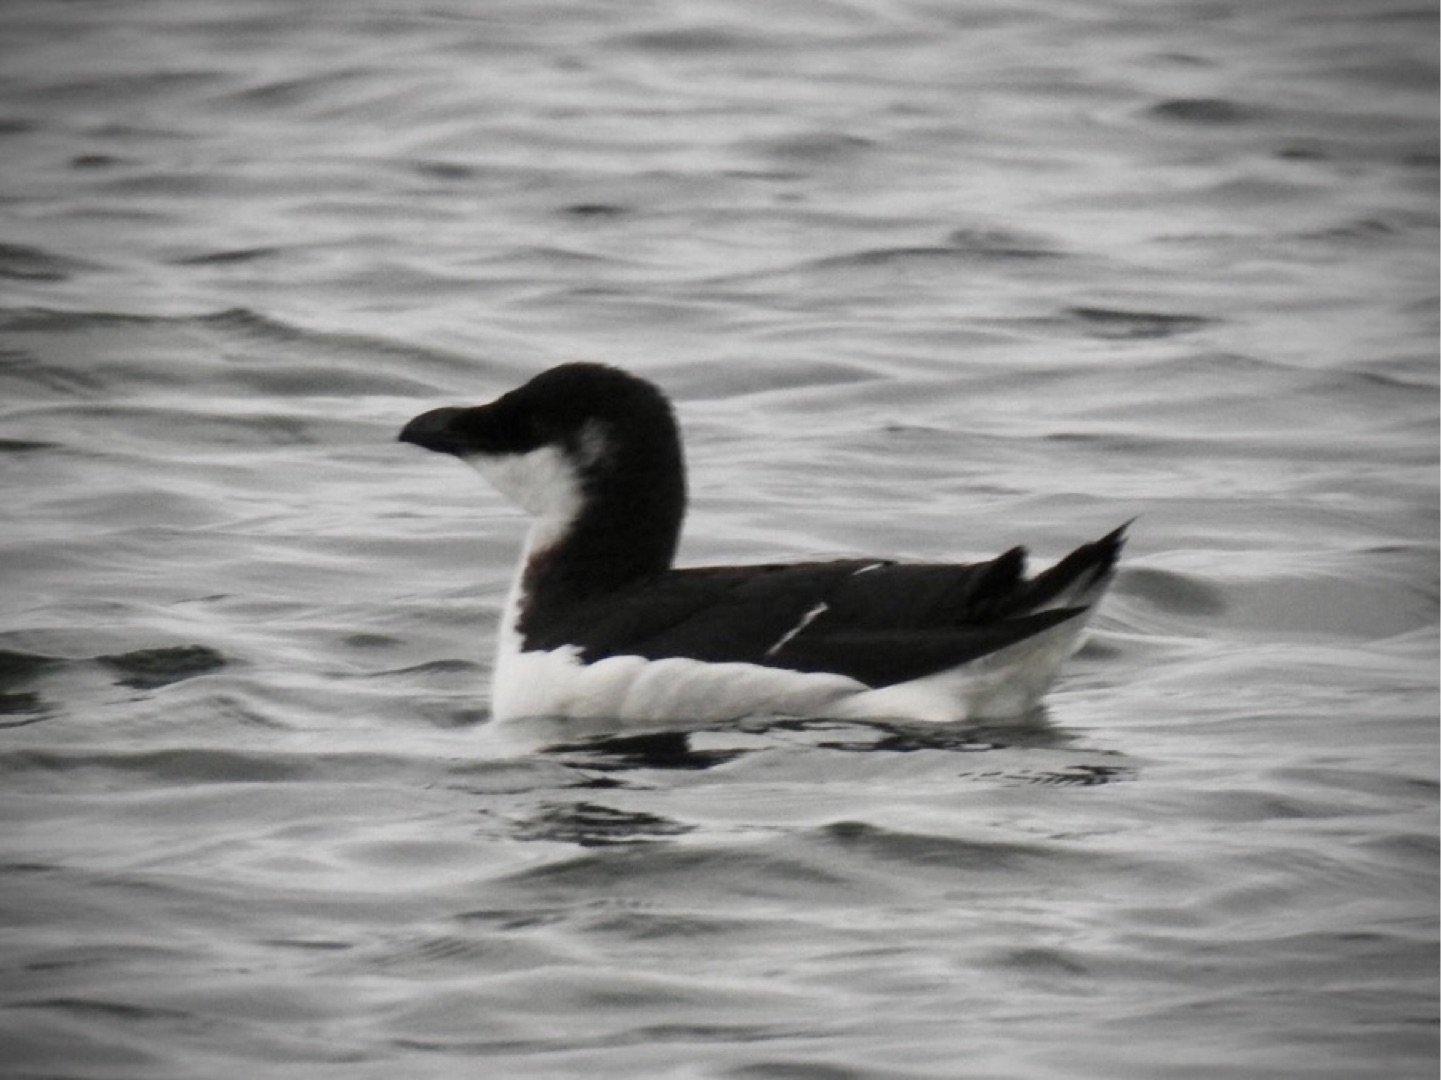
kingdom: Animalia
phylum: Chordata
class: Aves
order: Charadriiformes
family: Alcidae
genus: Alca
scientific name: Alca torda
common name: Alk
